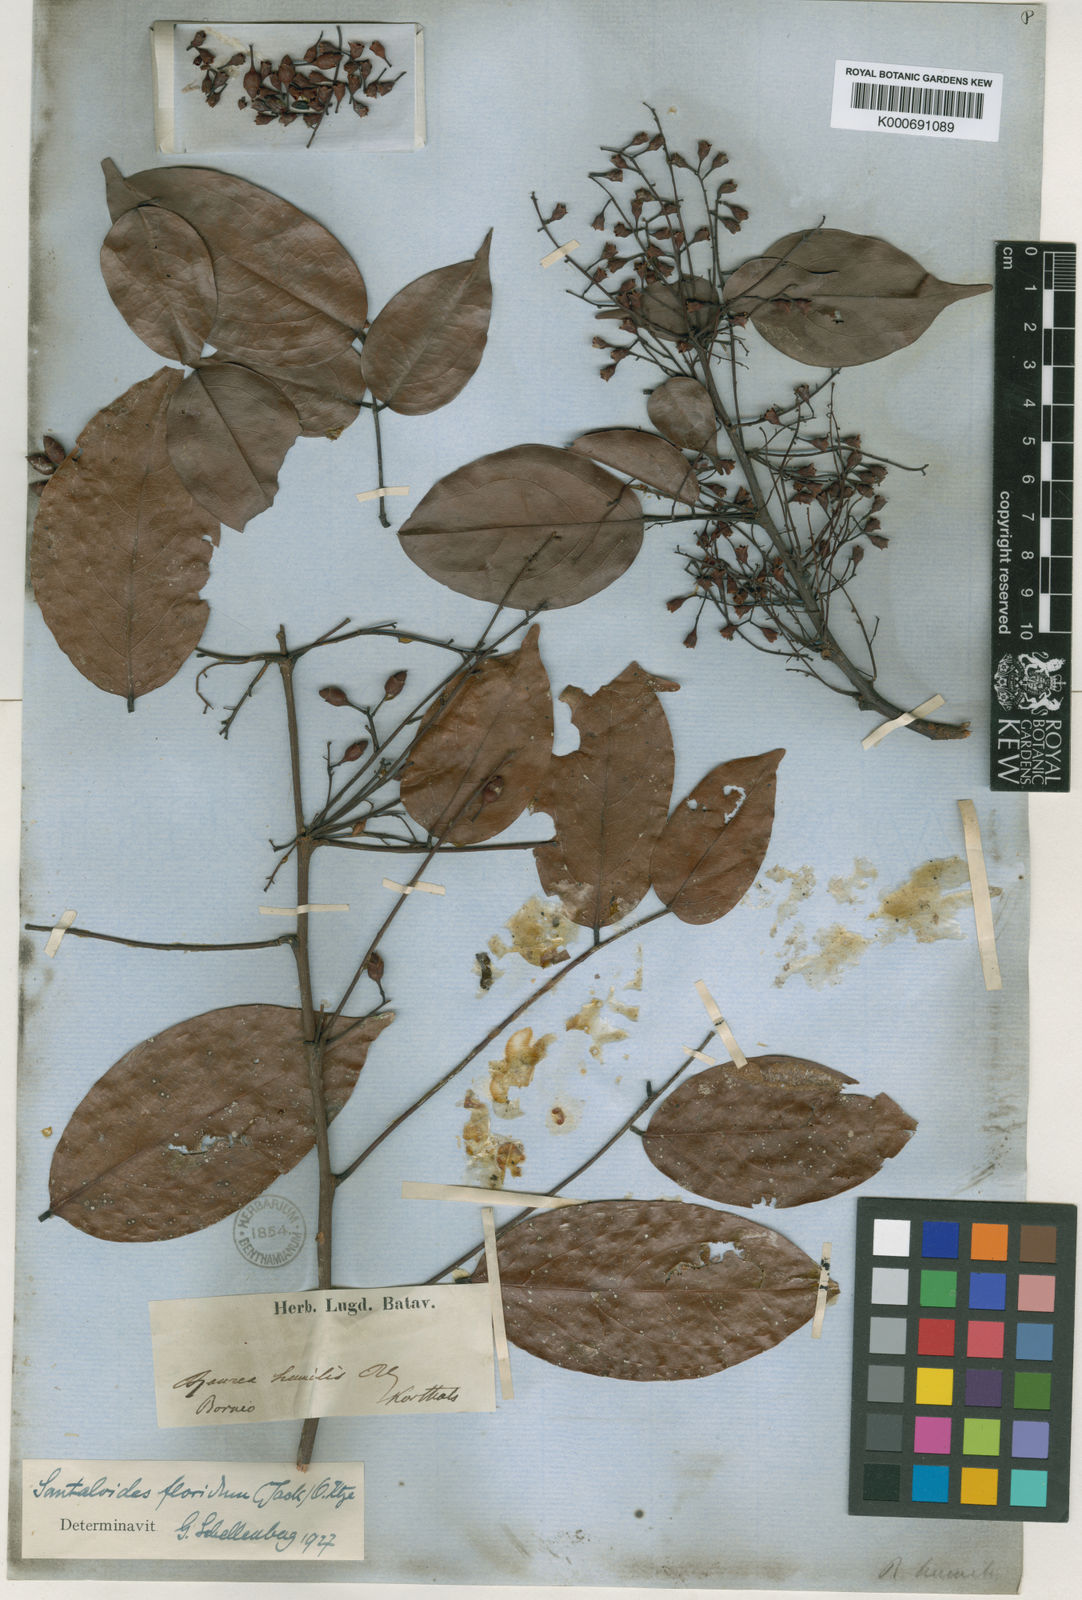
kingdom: Plantae
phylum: Tracheophyta
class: Magnoliopsida
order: Oxalidales
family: Connaraceae
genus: Rourea
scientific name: Rourea
